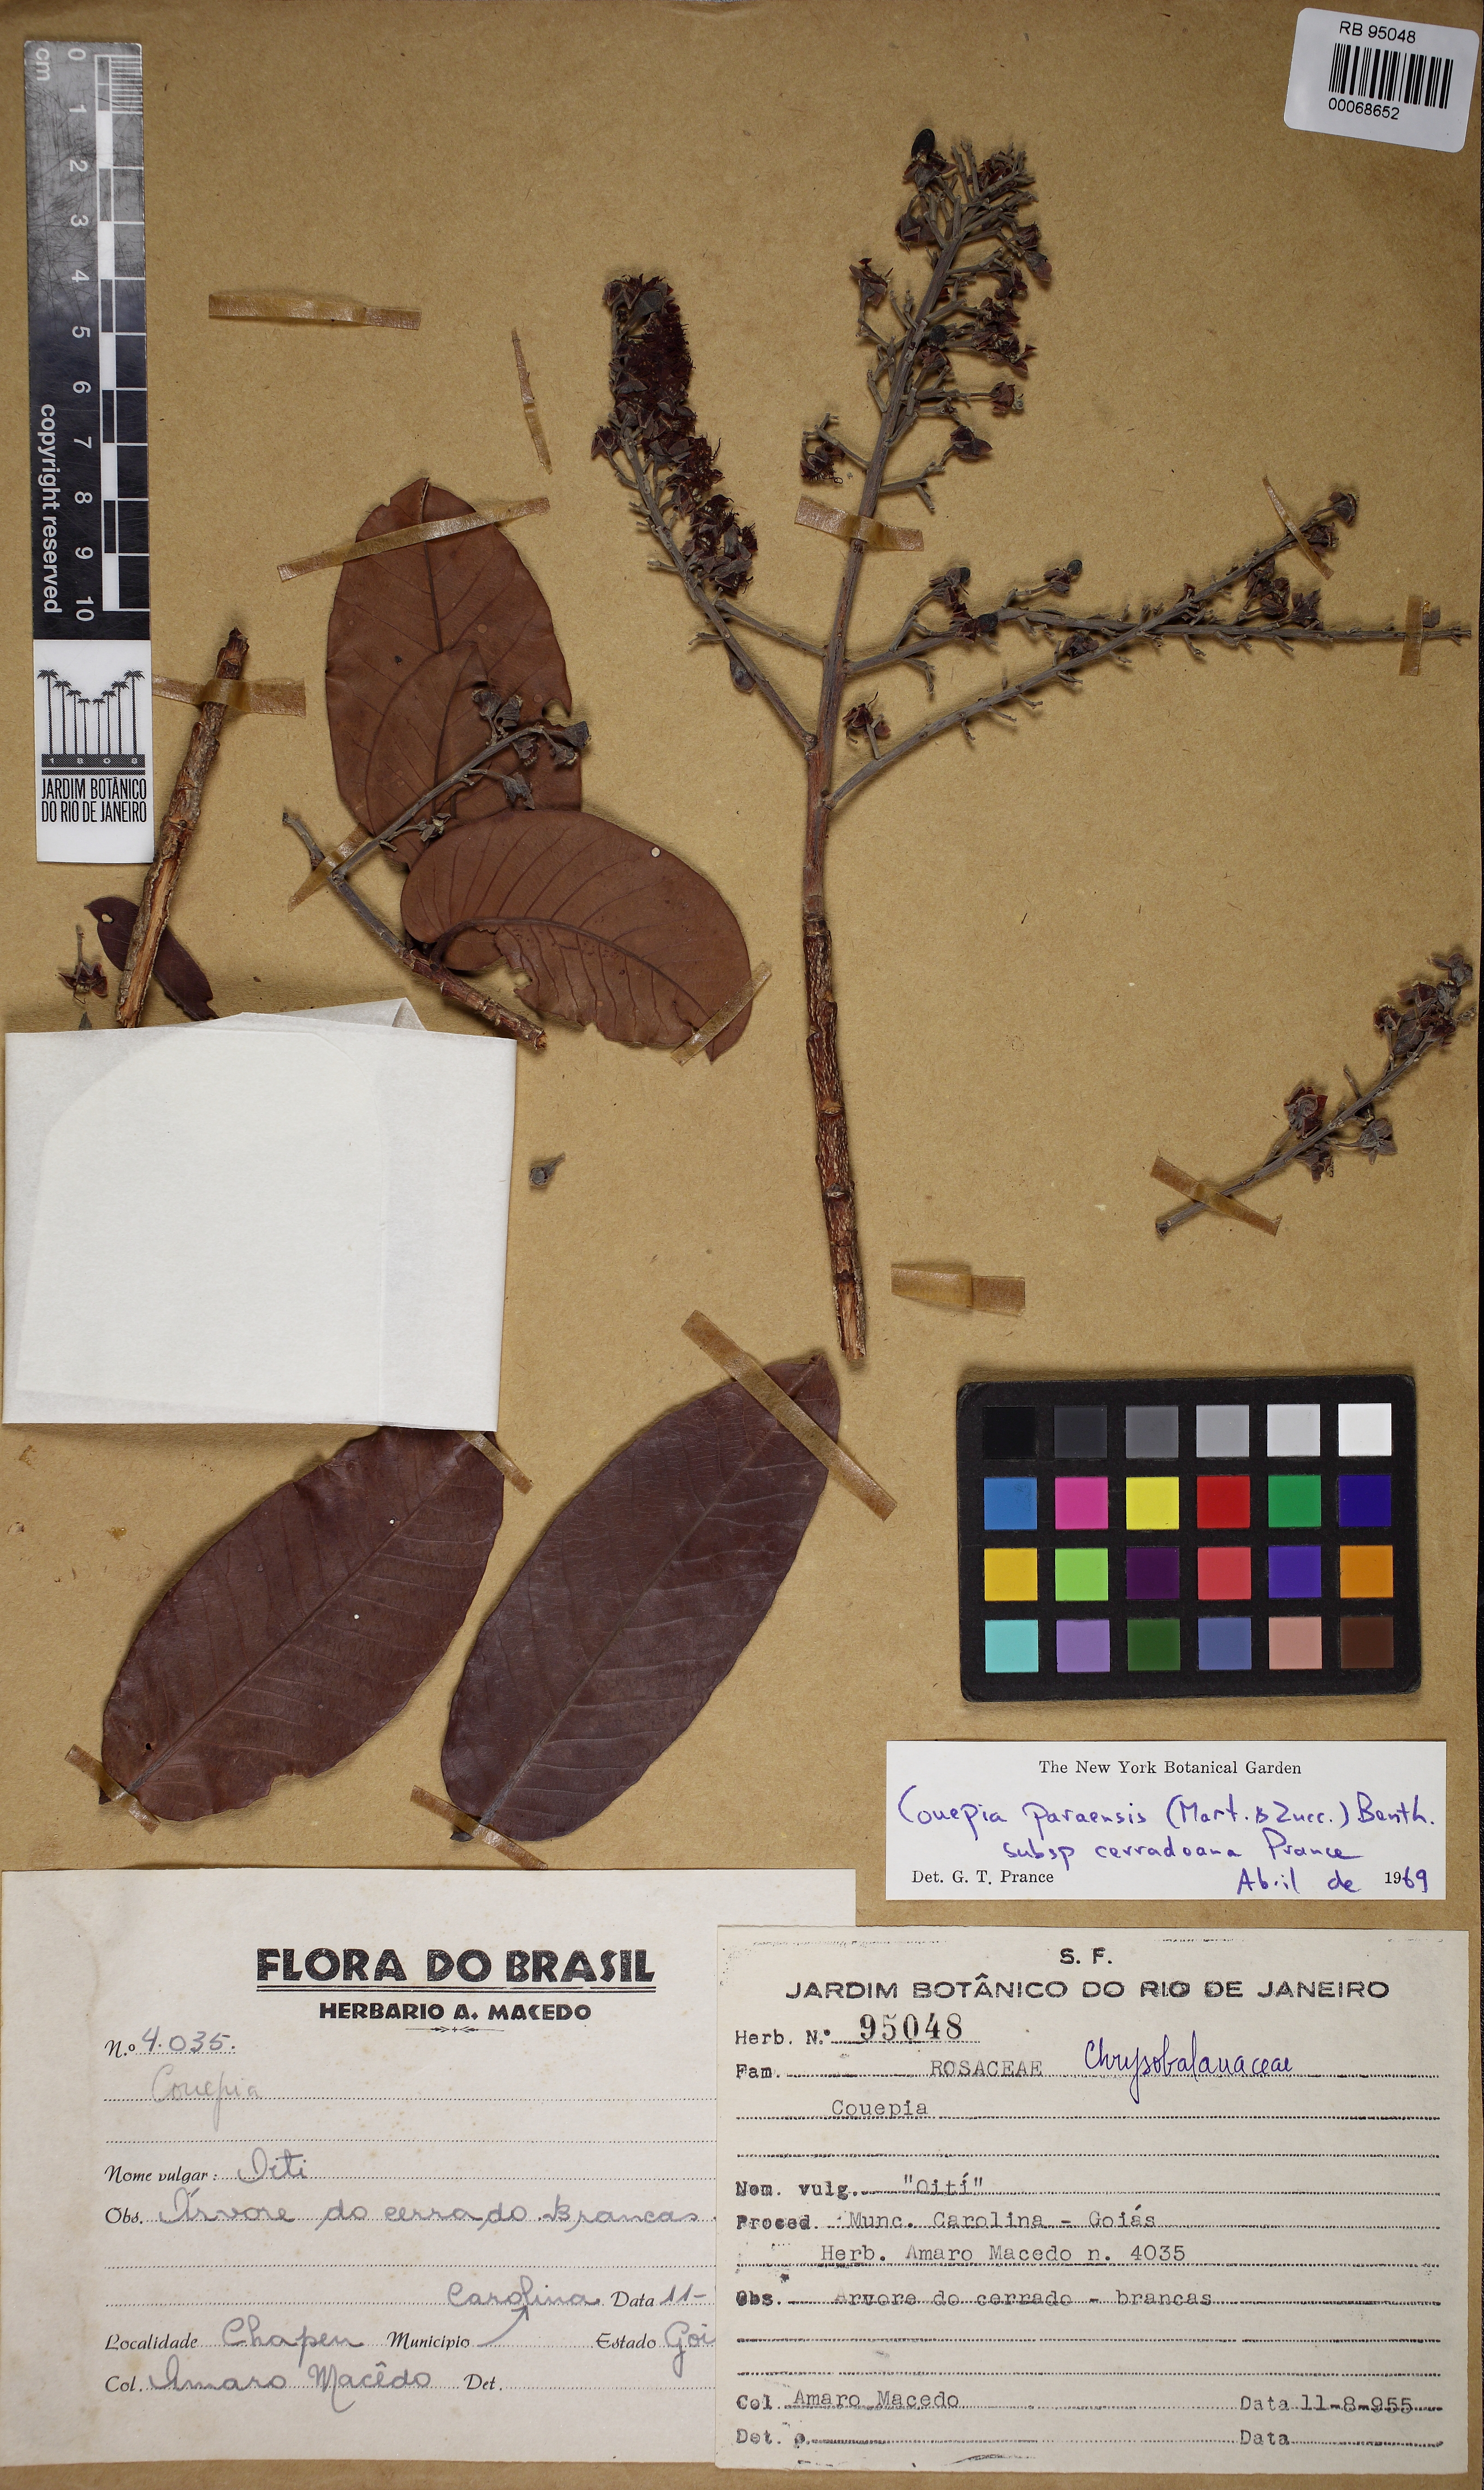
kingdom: Plantae
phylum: Tracheophyta
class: Magnoliopsida
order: Malpighiales
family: Chrysobalanaceae
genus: Couepia
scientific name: Couepia paraensis
